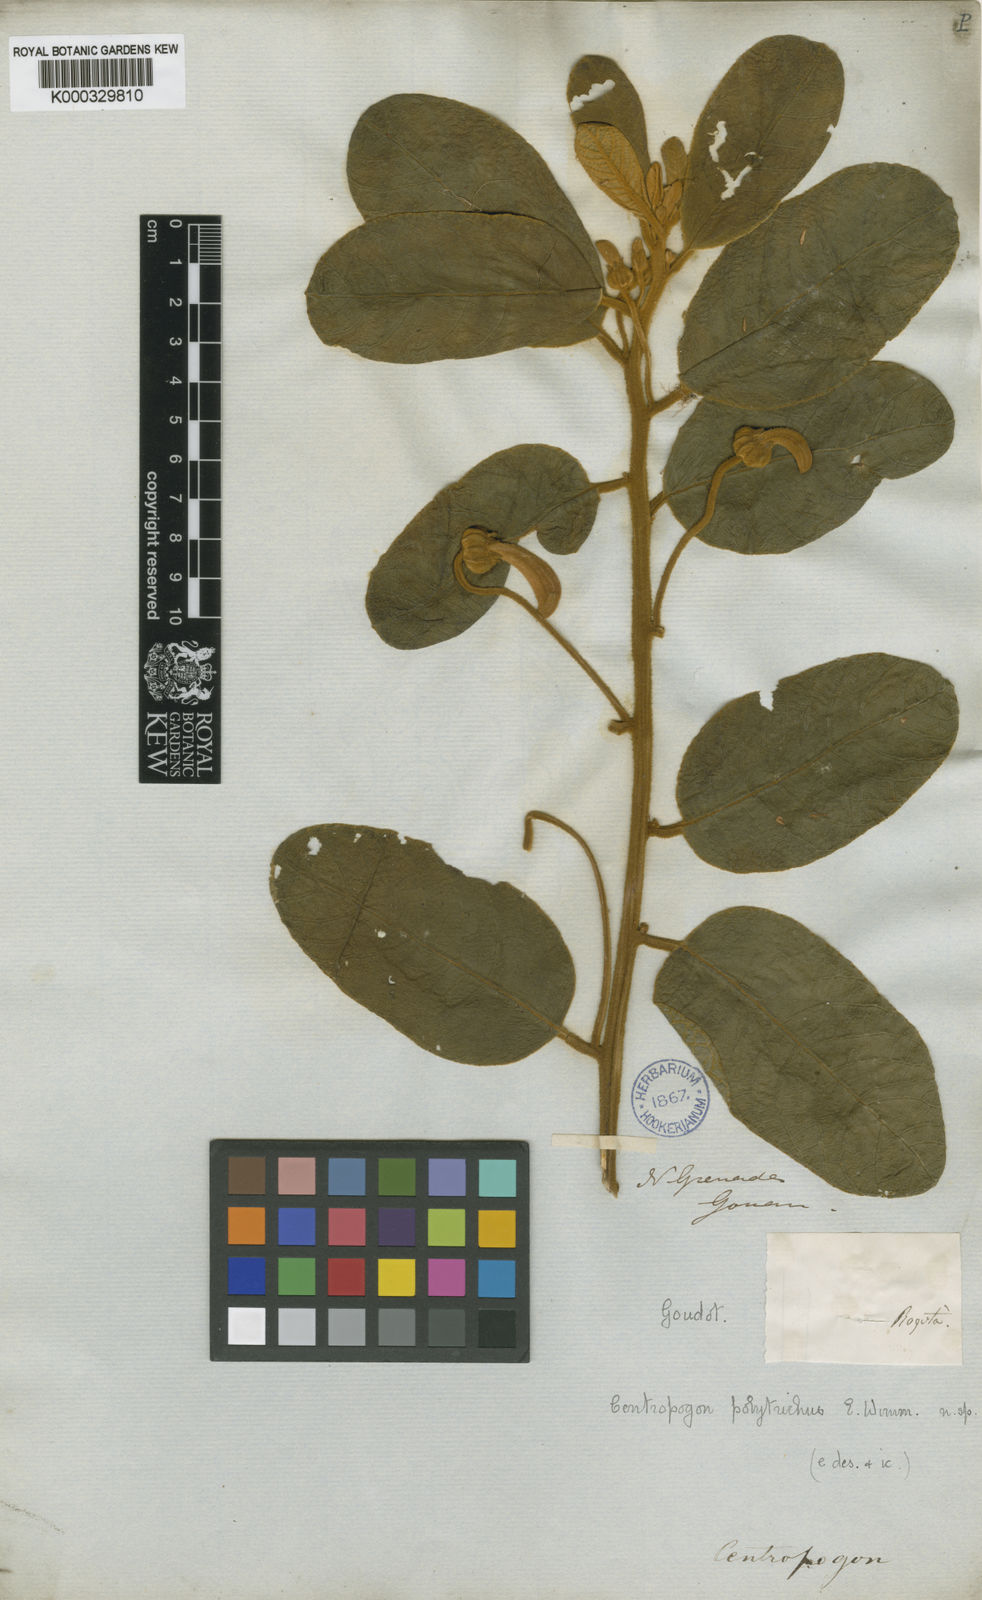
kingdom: Plantae
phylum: Tracheophyta
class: Magnoliopsida
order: Asterales
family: Campanulaceae
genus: Centropogon
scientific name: Centropogon polytrichus
